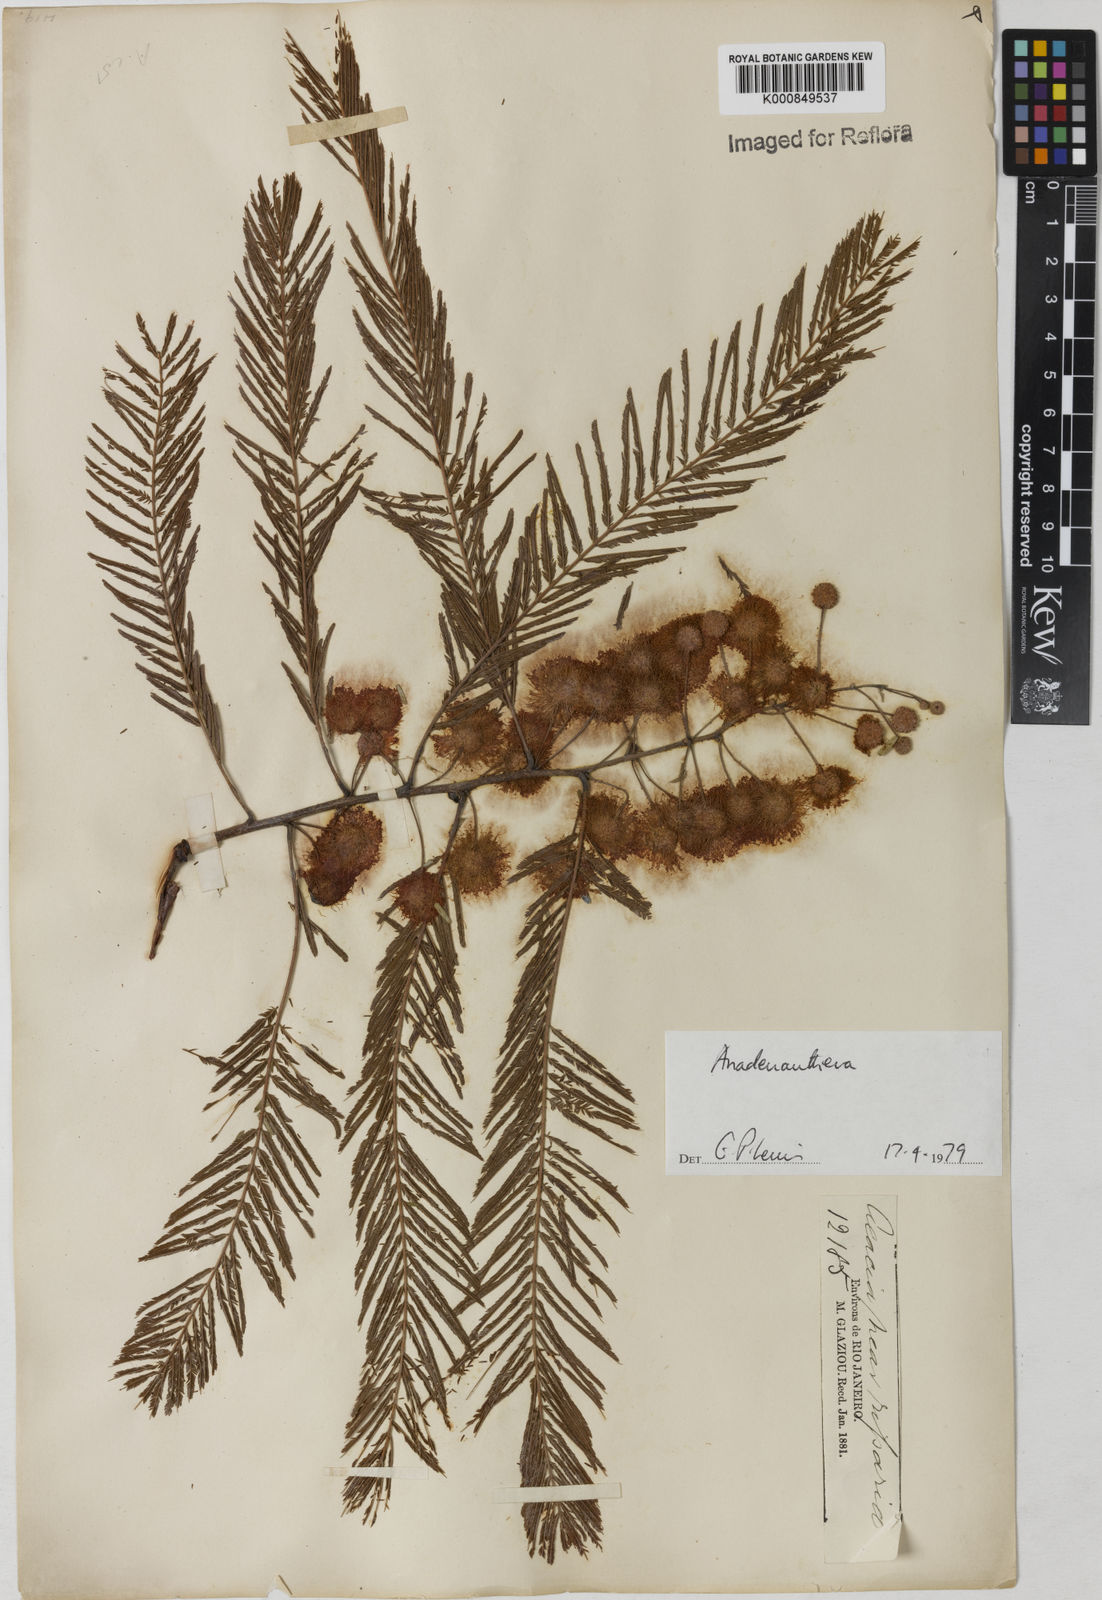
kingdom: Plantae
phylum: Tracheophyta
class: Magnoliopsida
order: Fabales
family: Fabaceae
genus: Anadenanthera
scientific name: Anadenanthera
